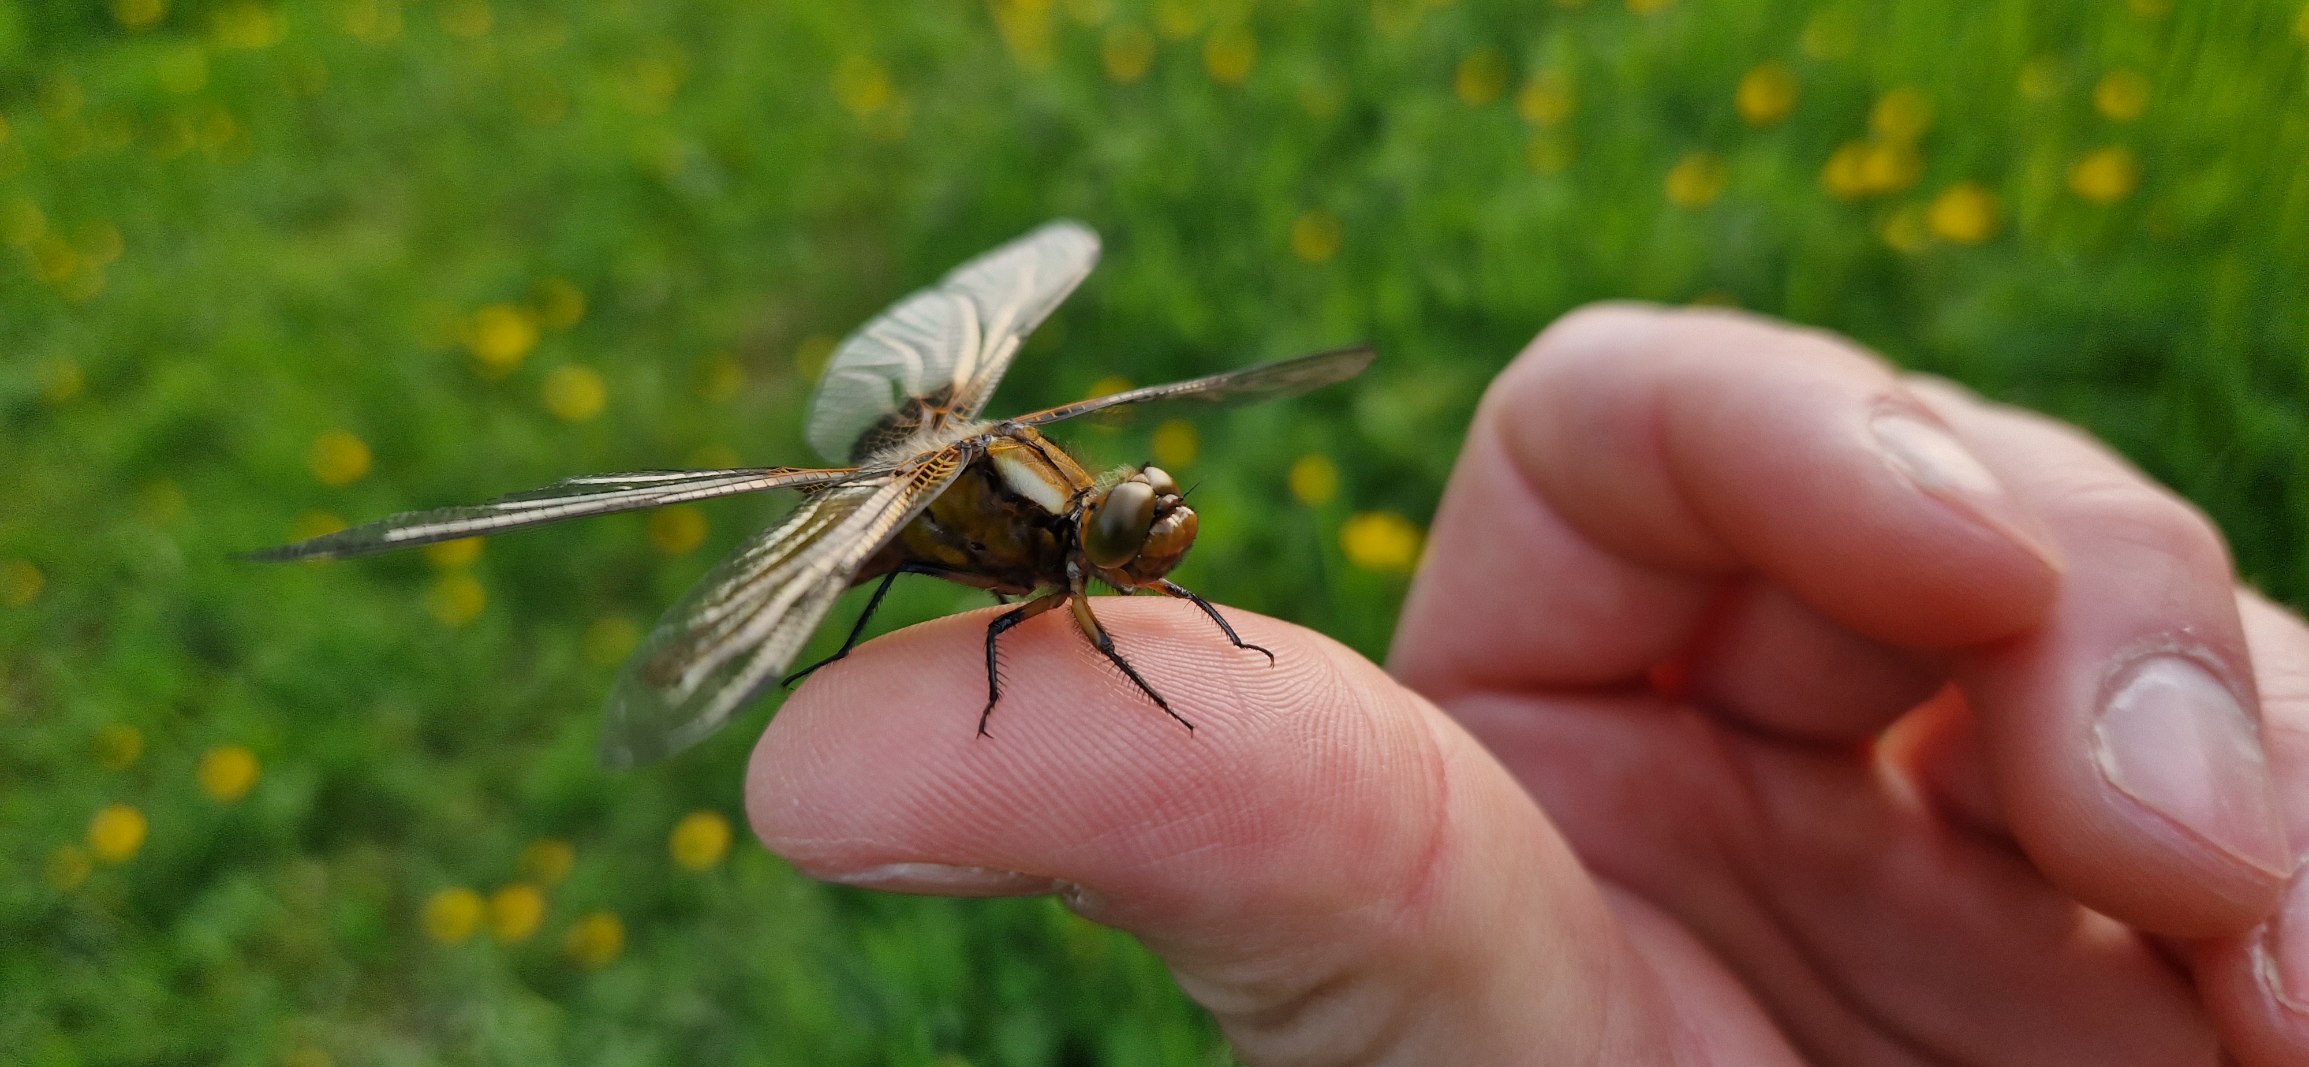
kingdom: Animalia
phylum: Arthropoda
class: Insecta
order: Odonata
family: Libellulidae
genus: Libellula
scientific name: Libellula depressa
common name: Blå libel
